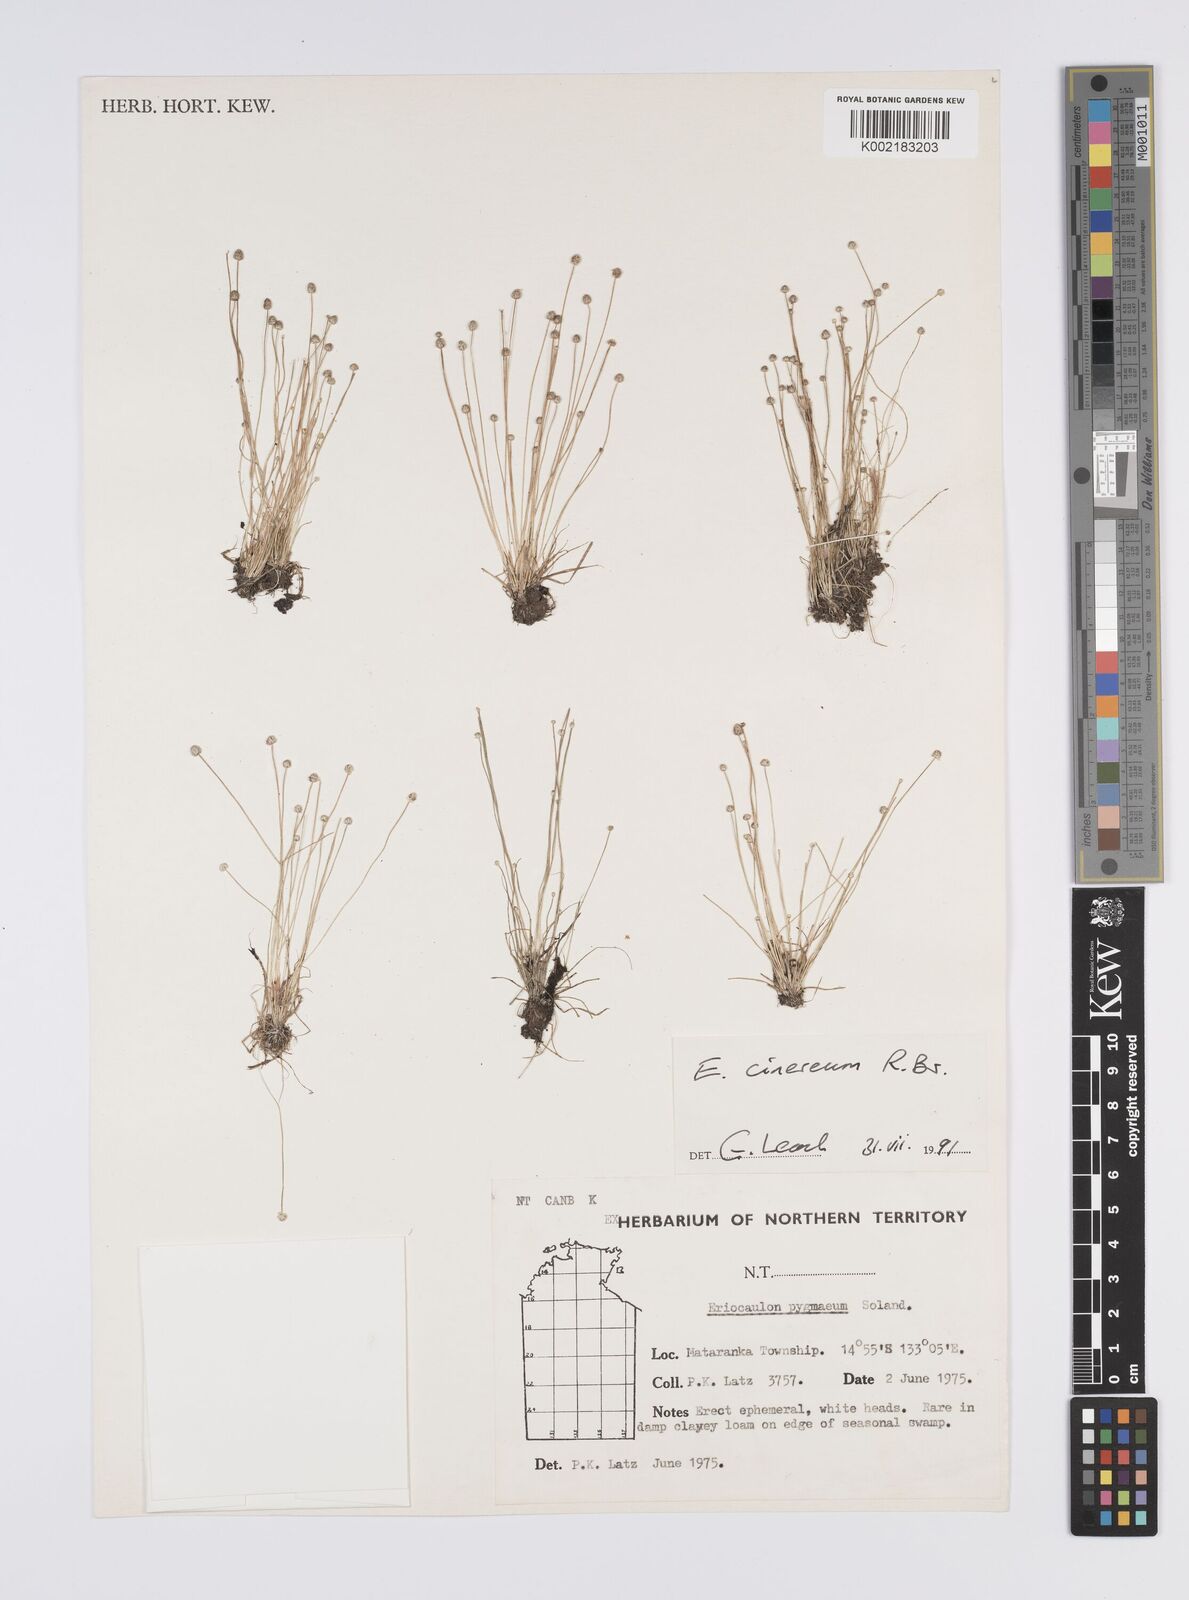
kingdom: Plantae
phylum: Tracheophyta
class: Liliopsida
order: Poales
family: Eriocaulaceae
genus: Eriocaulon
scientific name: Eriocaulon cinereum
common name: Ashy pipewort
